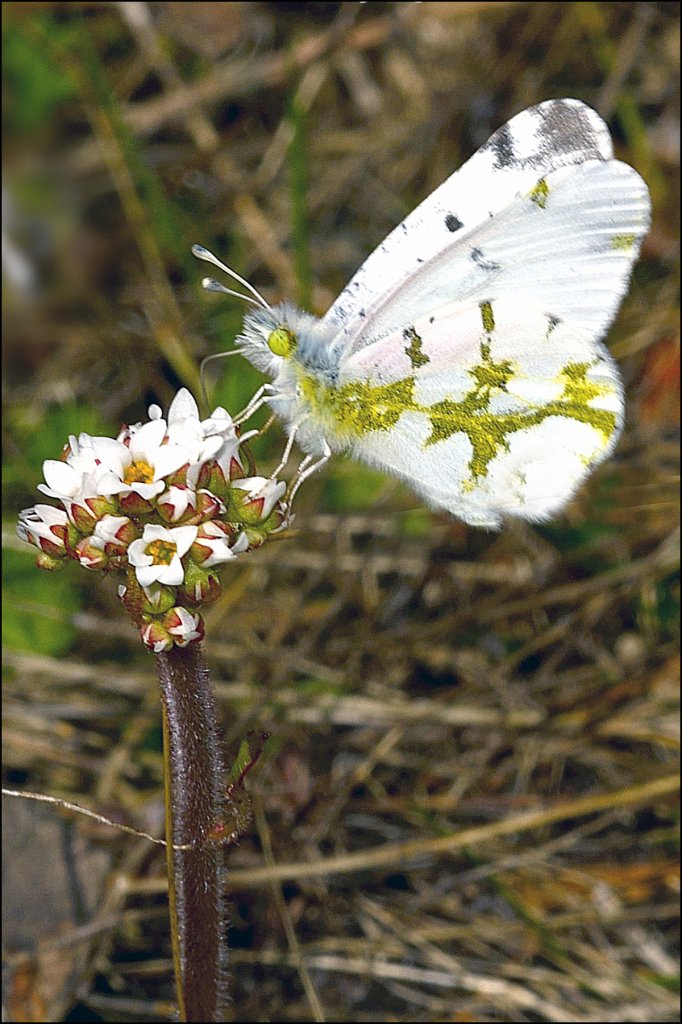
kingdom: Animalia
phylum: Arthropoda
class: Insecta
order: Lepidoptera
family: Pieridae
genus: Euchloe
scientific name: Euchloe olympia
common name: Olympia Marble
